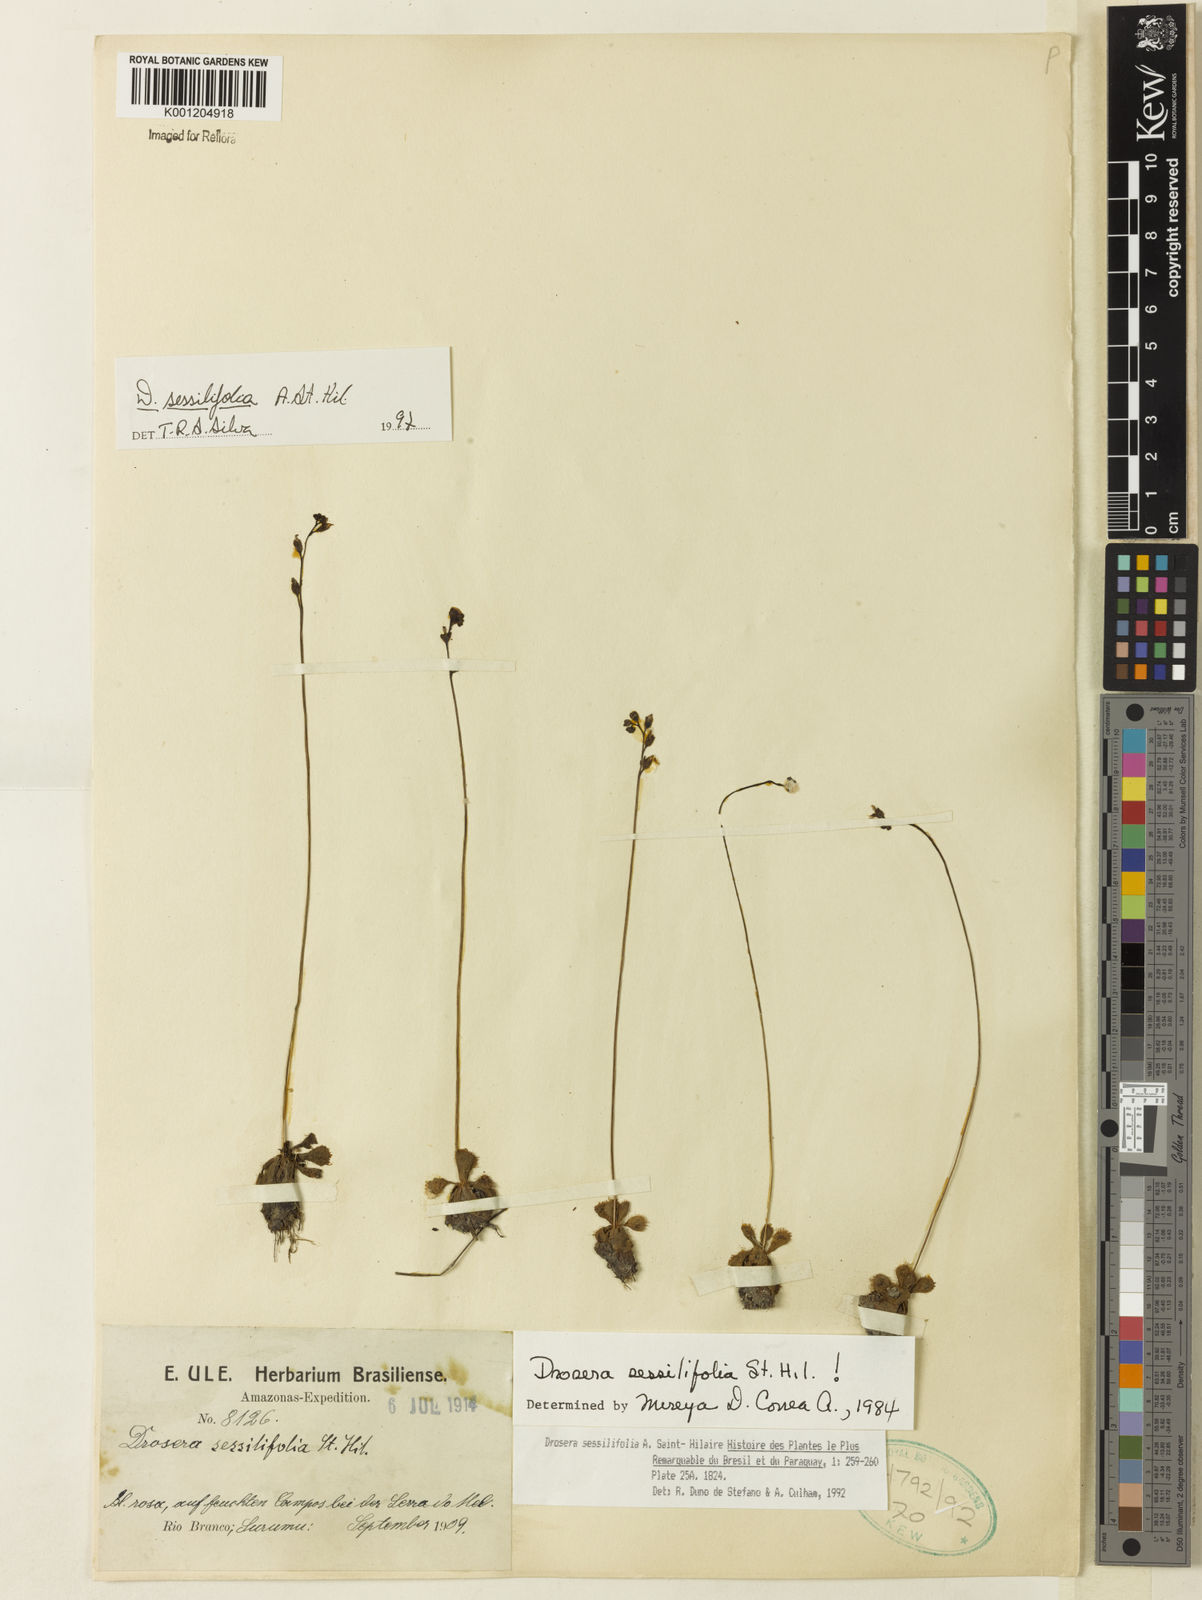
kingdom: Plantae
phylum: Tracheophyta
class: Magnoliopsida
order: Caryophyllales
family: Droseraceae
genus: Drosera
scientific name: Drosera sessilifolia
